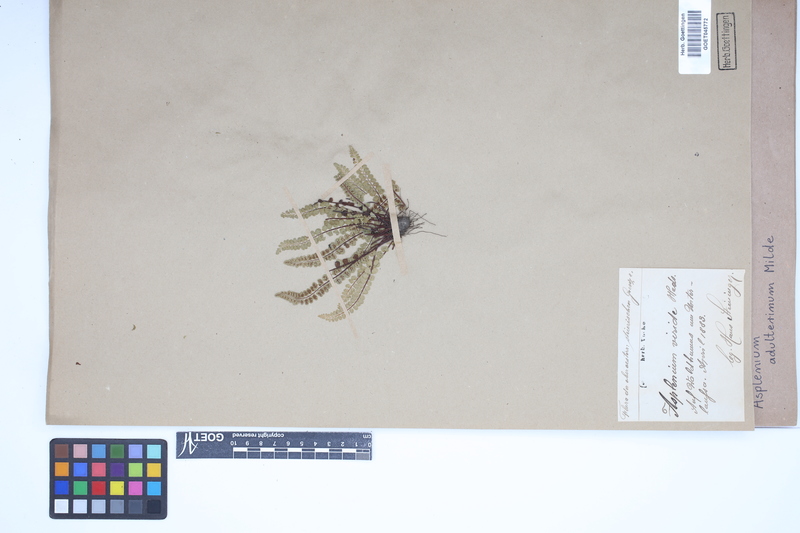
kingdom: Plantae
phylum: Tracheophyta
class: Polypodiopsida
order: Polypodiales
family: Aspleniaceae
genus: Asplenium
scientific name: Asplenium adulterinum
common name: Adulterated spleenwort
